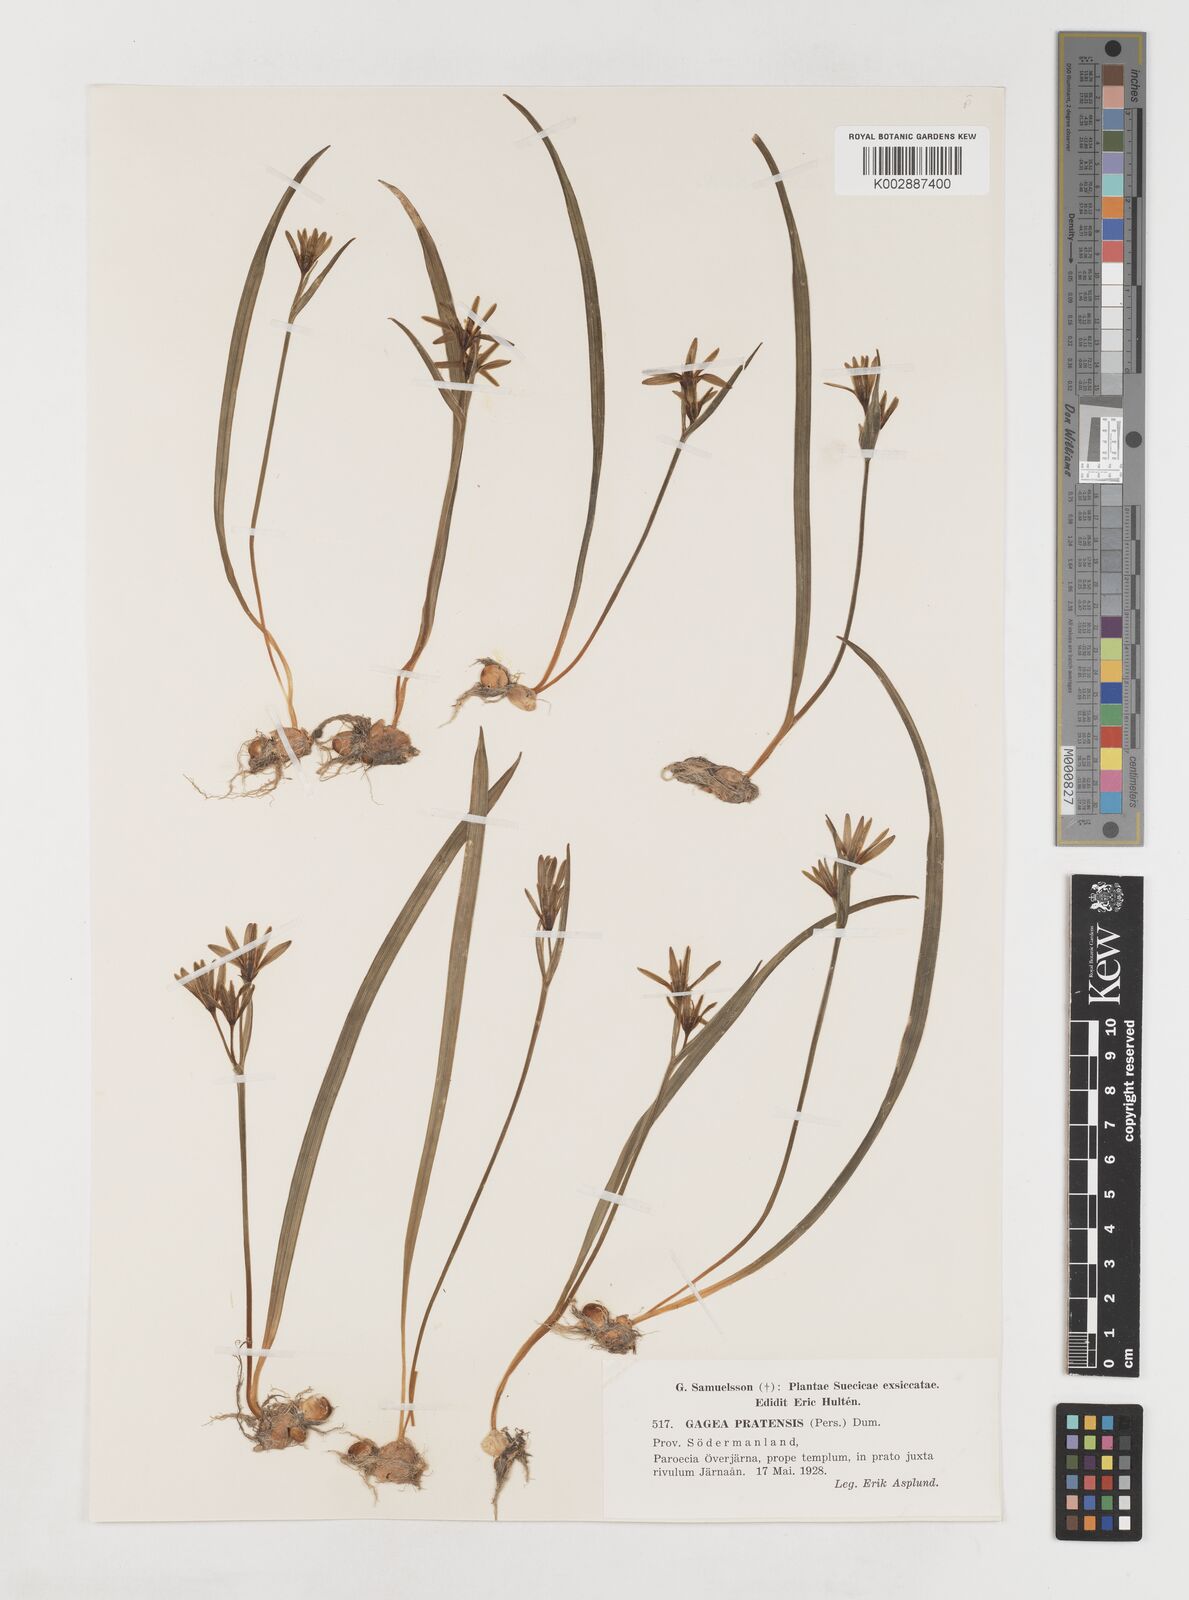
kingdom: Plantae
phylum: Tracheophyta
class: Liliopsida
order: Liliales
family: Liliaceae
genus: Gagea
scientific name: Gagea pratensis
